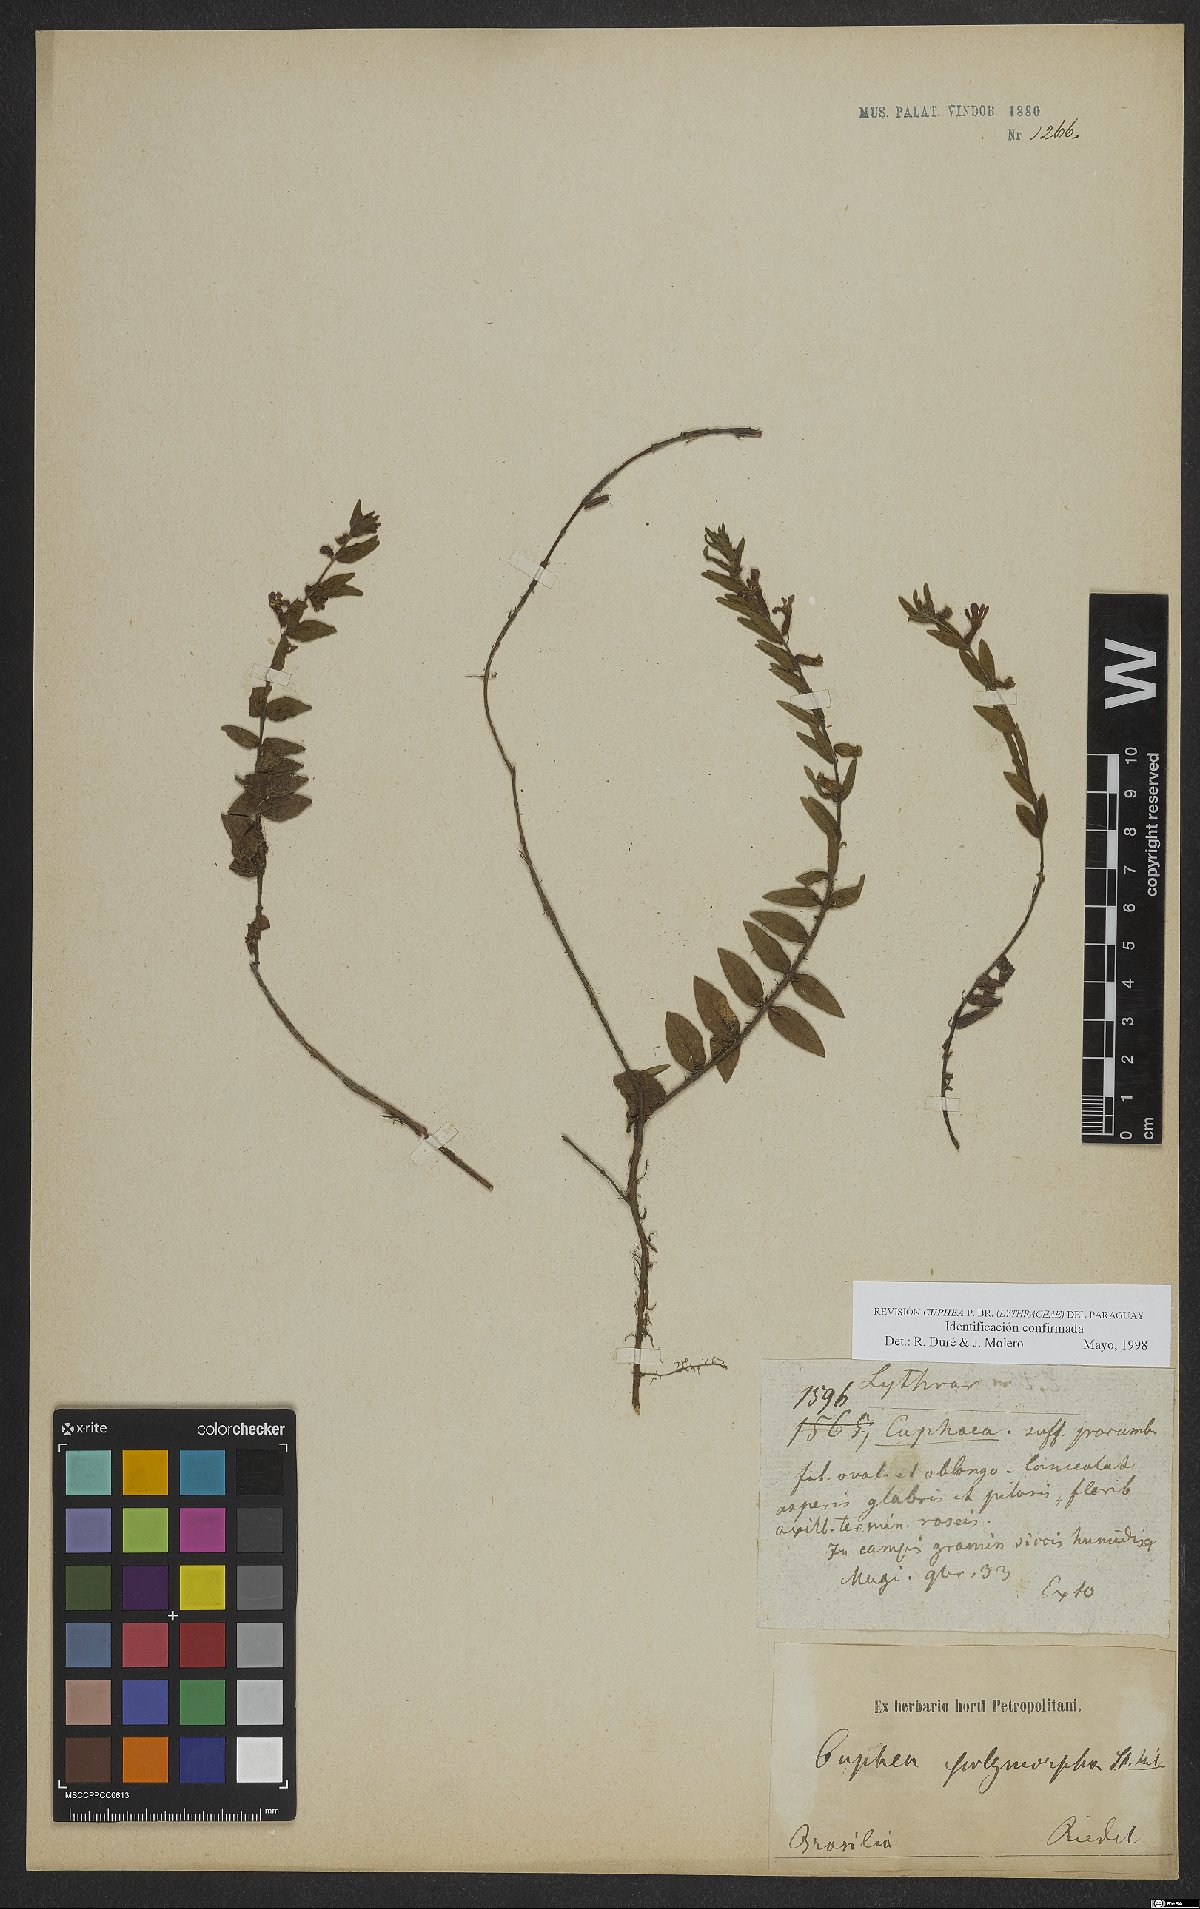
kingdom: Plantae
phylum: Tracheophyta
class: Magnoliopsida
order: Myrtales
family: Lythraceae
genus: Cuphea
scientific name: Cuphea polymorpha
